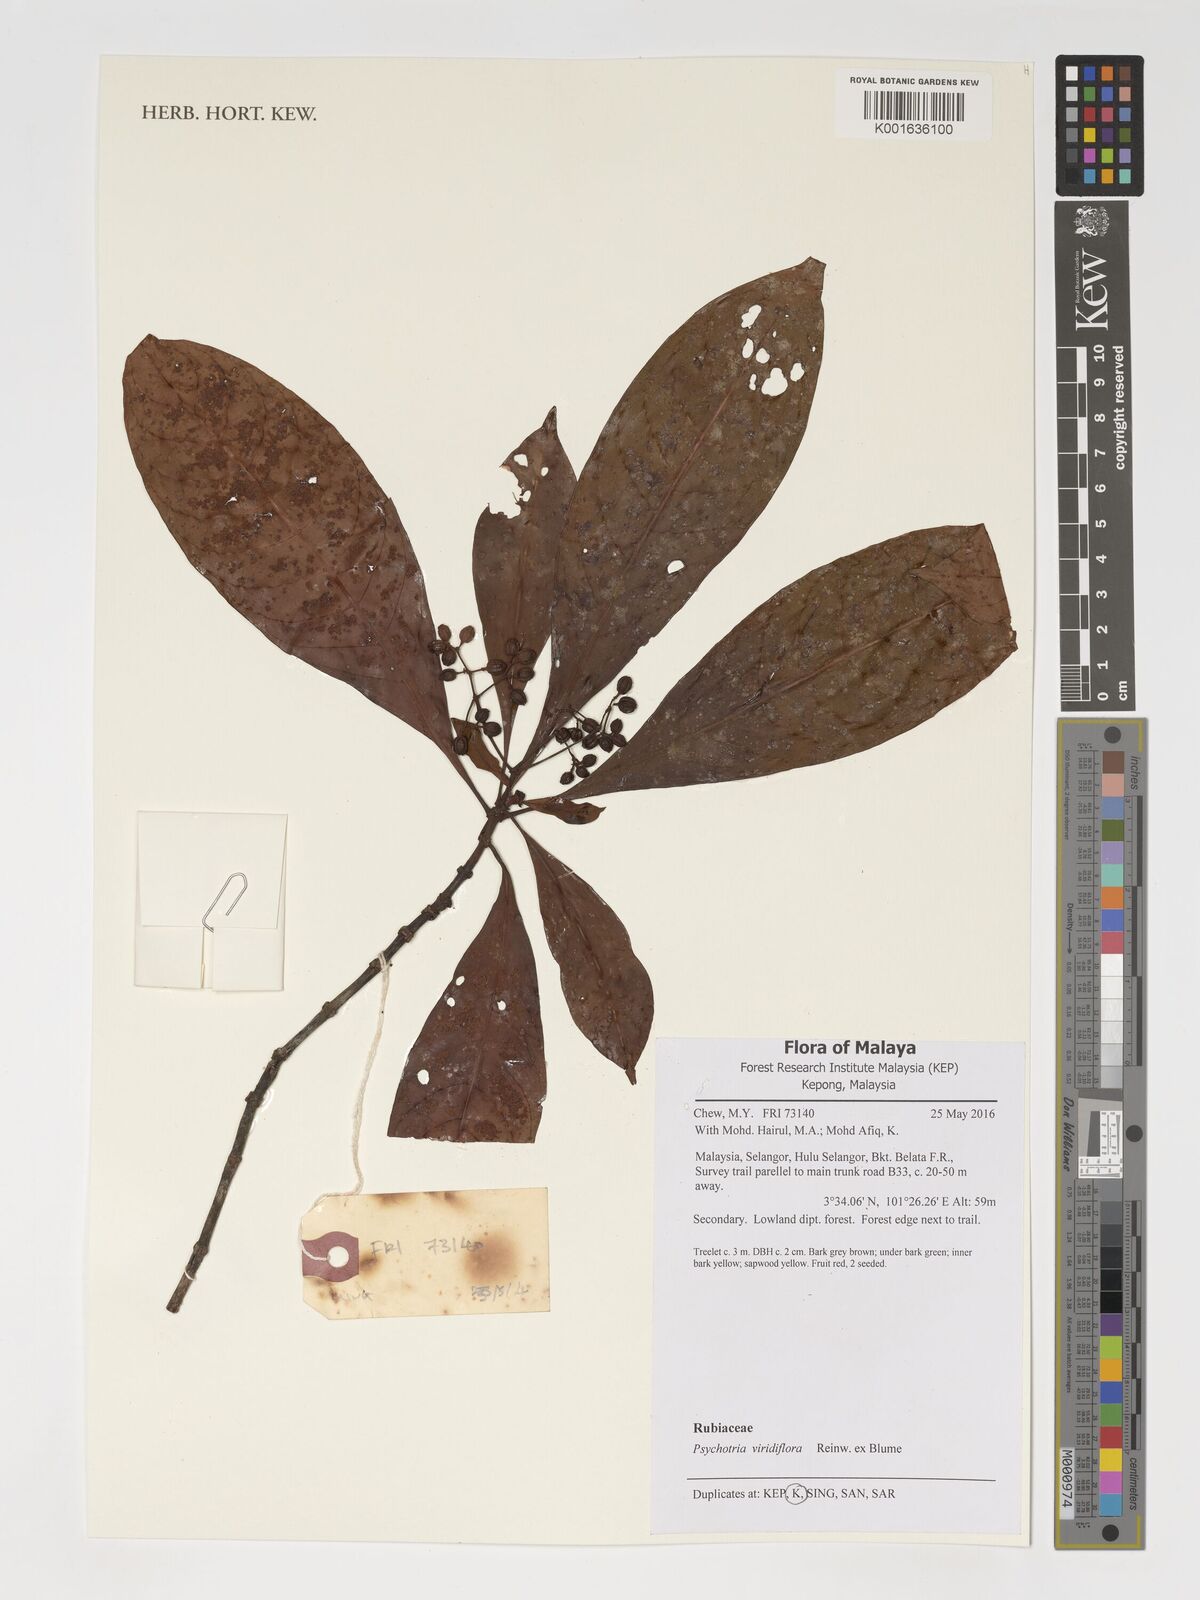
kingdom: Plantae
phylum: Tracheophyta
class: Magnoliopsida
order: Gentianales
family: Rubiaceae
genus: Psychotria
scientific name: Psychotria viridiflora
